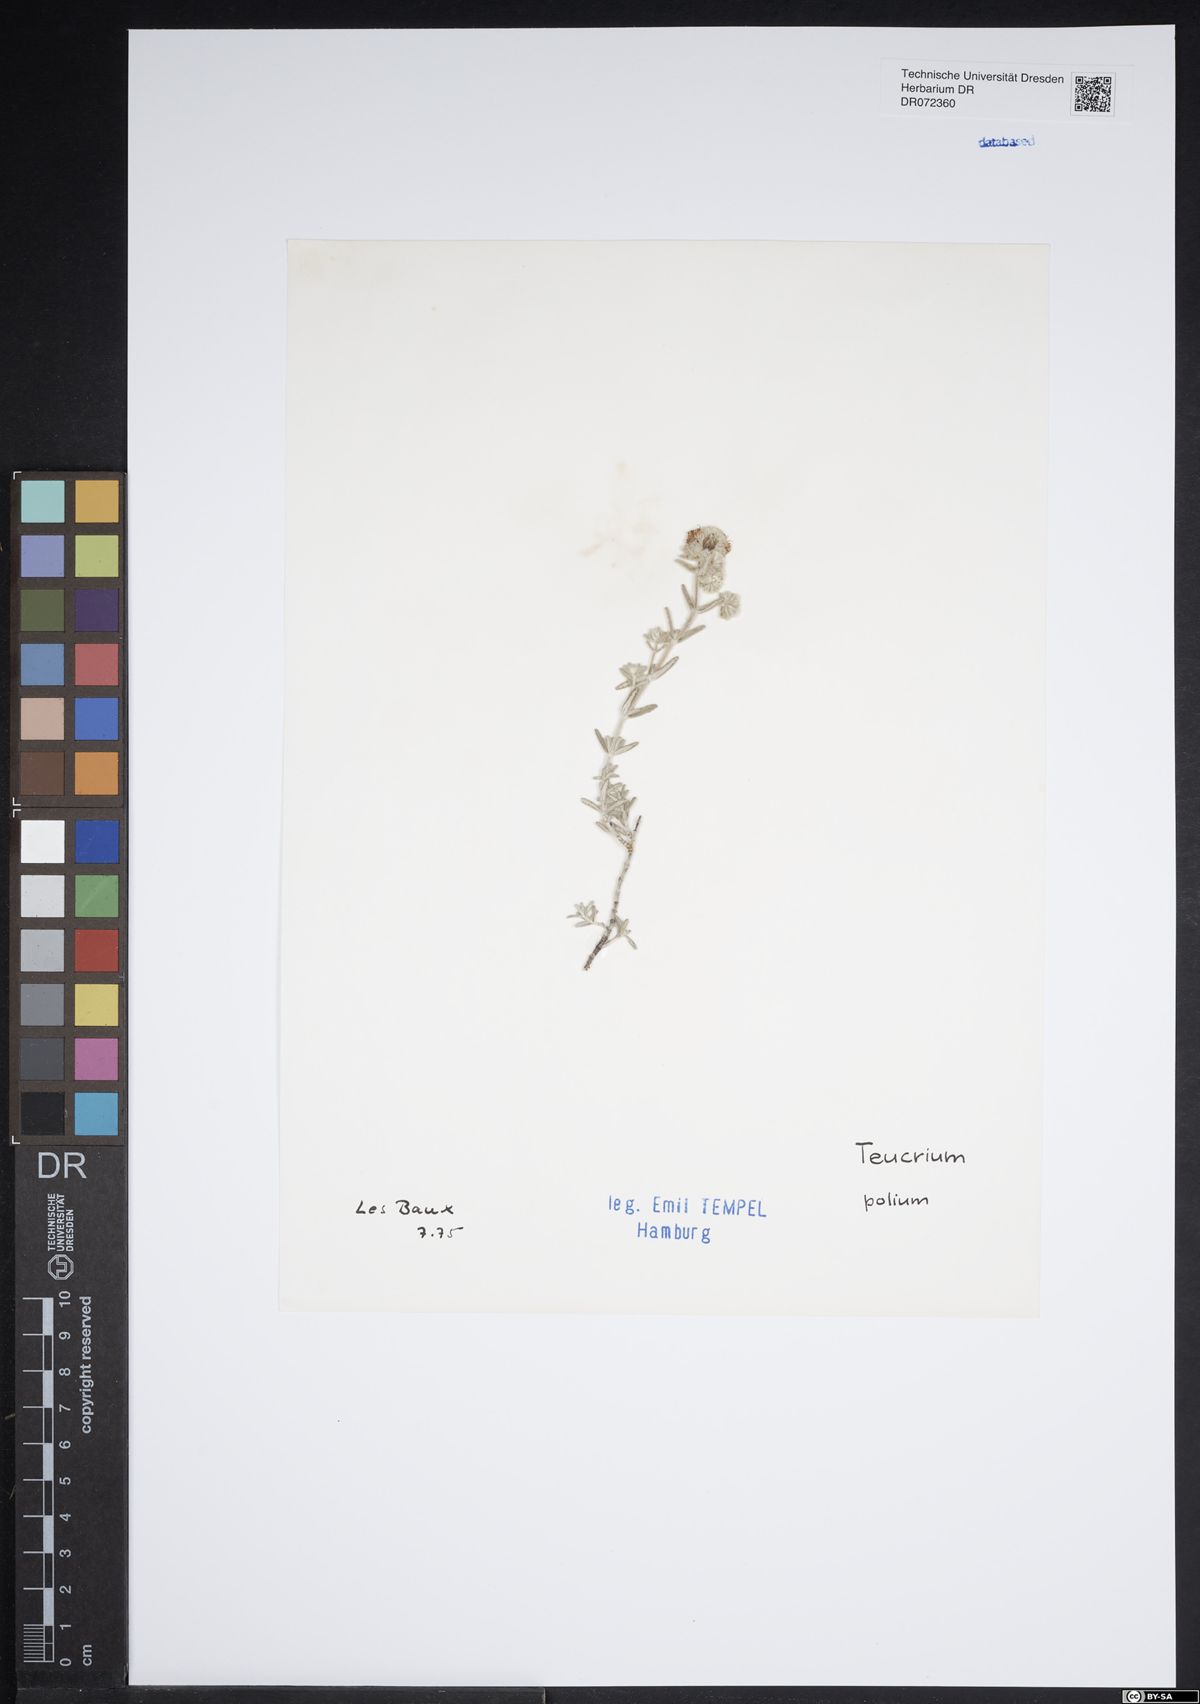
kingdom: Plantae
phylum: Tracheophyta
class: Magnoliopsida
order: Lamiales
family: Lamiaceae
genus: Teucrium
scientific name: Teucrium polium
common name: Poley
